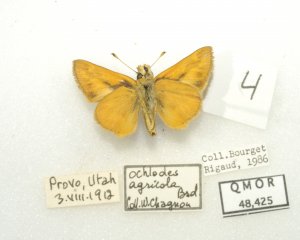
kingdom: Animalia
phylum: Arthropoda
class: Insecta
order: Lepidoptera
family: Hesperiidae
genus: Ochlodes
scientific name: Ochlodes sylvanoides
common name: Woodland Skipper
